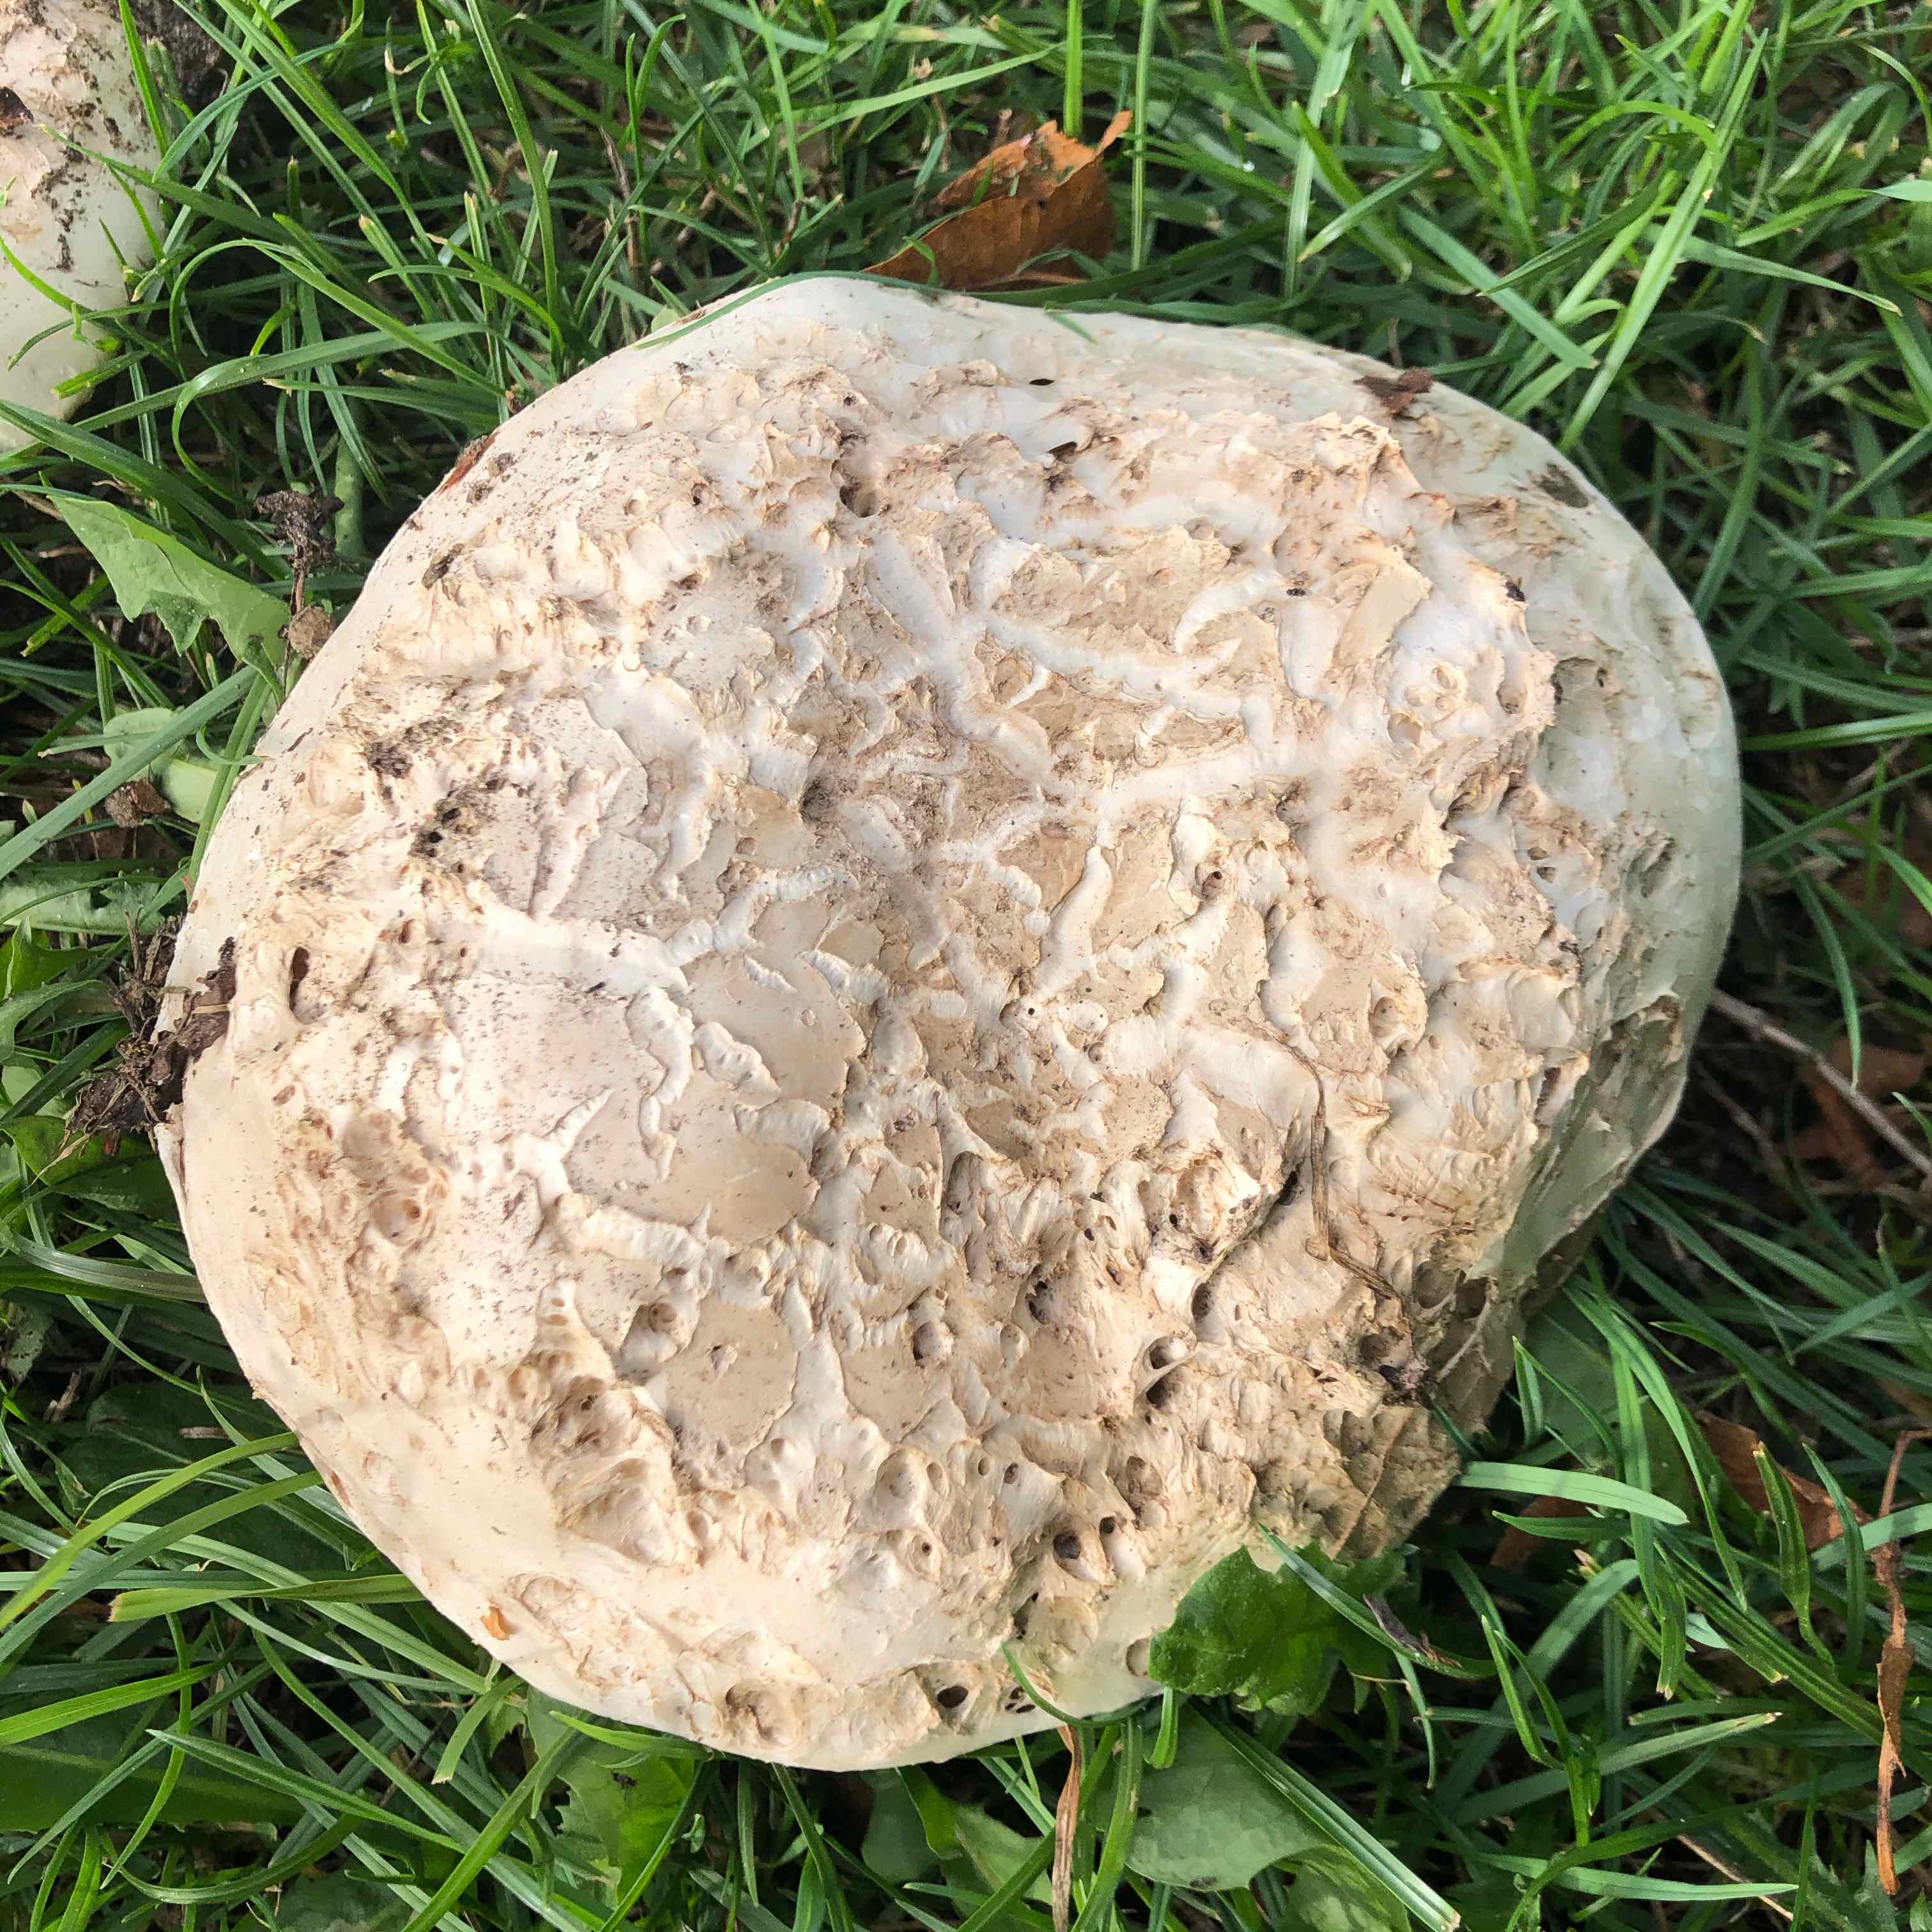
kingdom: Fungi
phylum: Basidiomycota
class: Agaricomycetes
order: Agaricales
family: Agaricaceae
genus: Agaricus
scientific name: Agaricus bernardii
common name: strandengs-champignon
